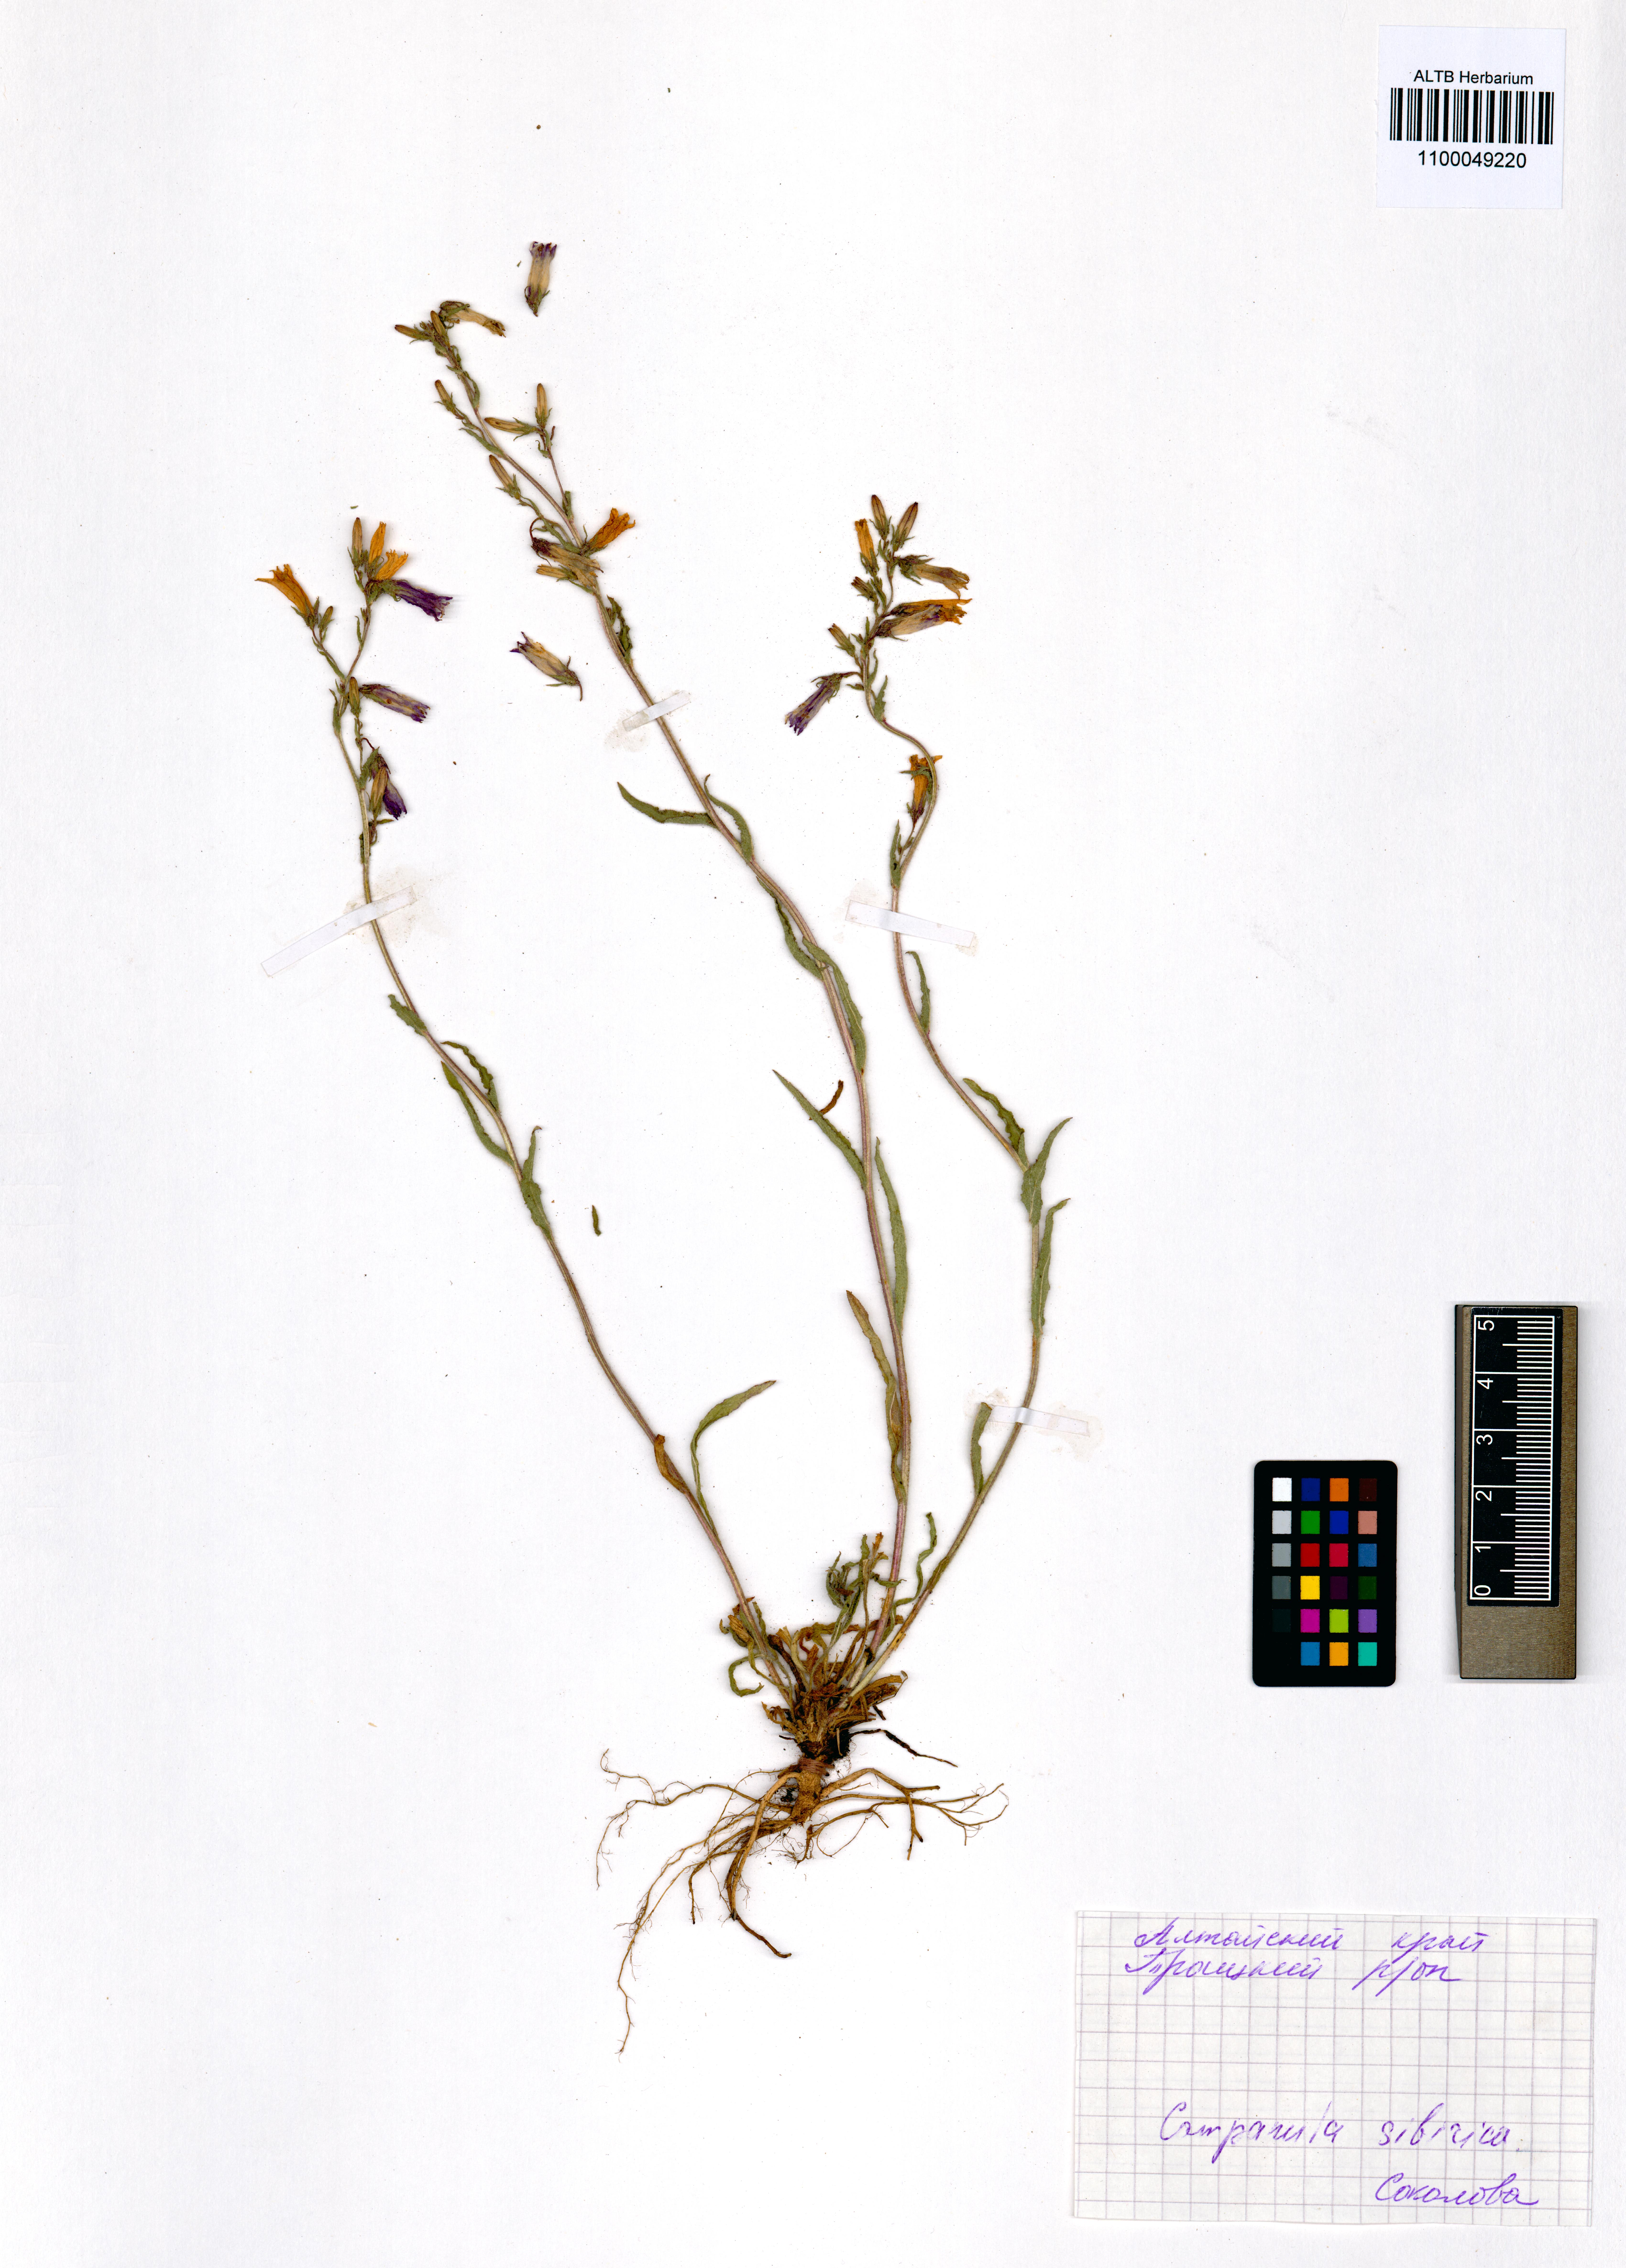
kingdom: Plantae
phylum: Tracheophyta
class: Magnoliopsida
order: Asterales
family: Campanulaceae
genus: Campanula
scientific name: Campanula sibirica
